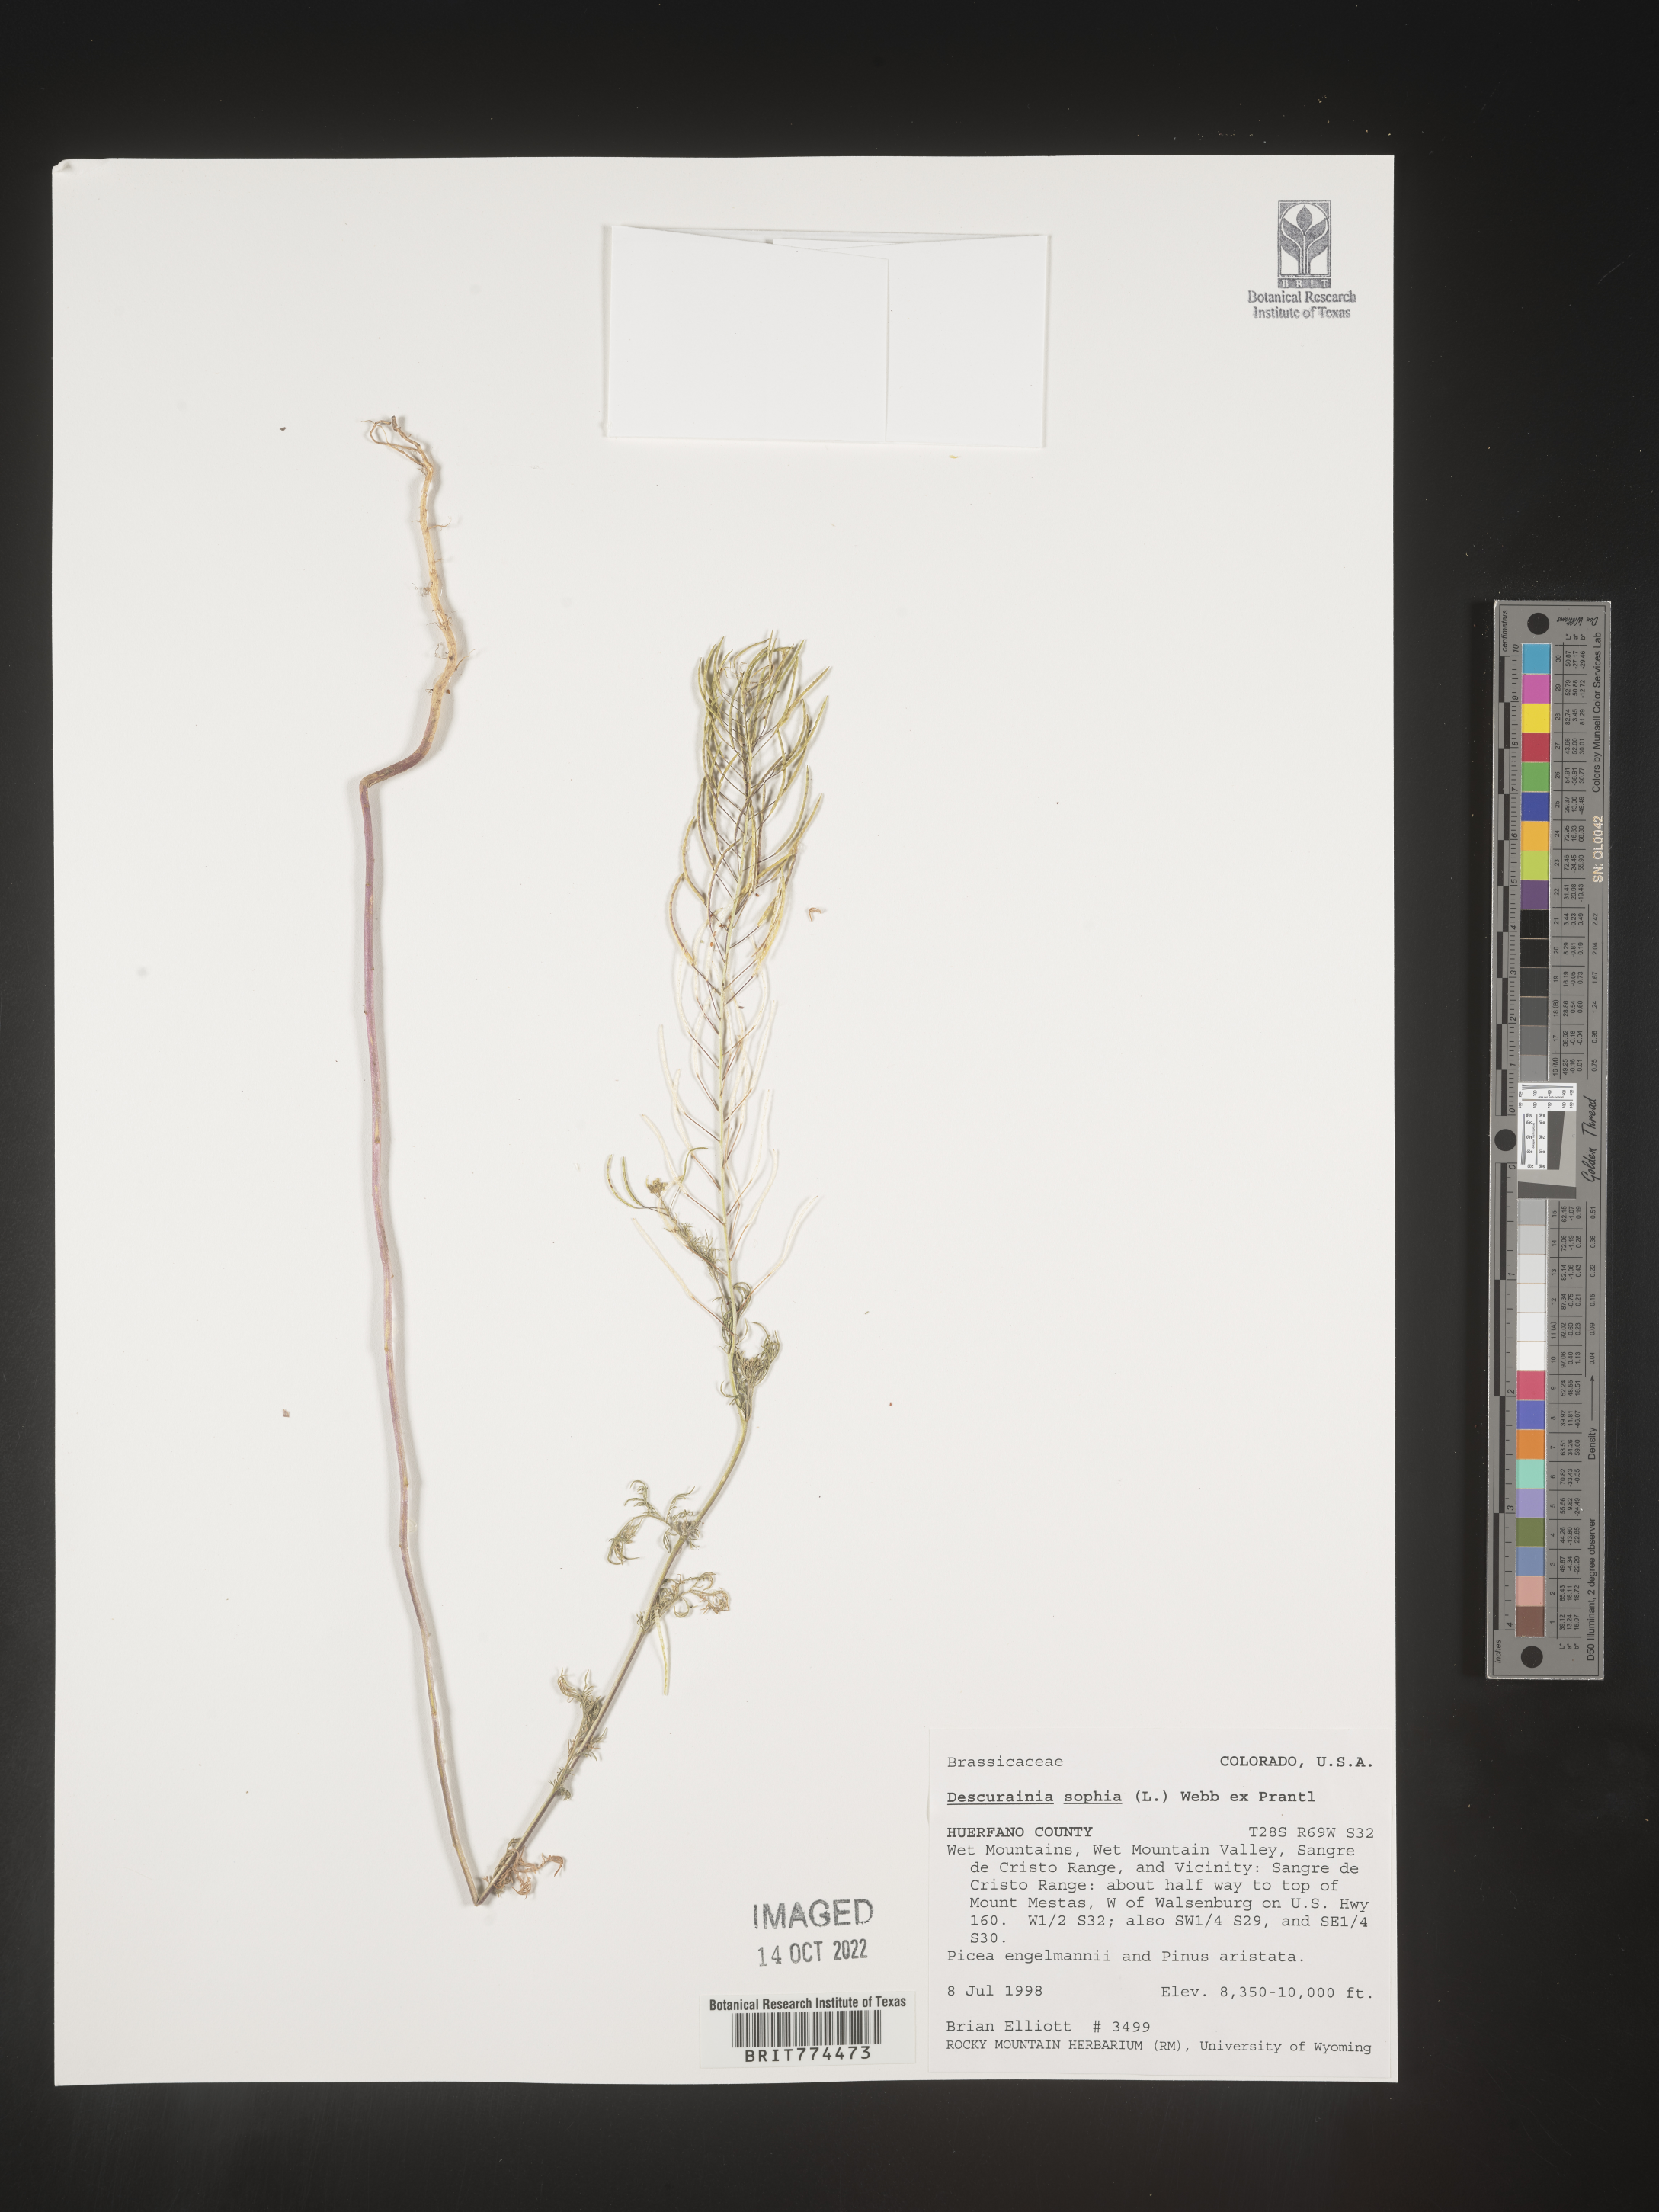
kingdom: Plantae
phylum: Tracheophyta
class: Magnoliopsida
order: Brassicales
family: Brassicaceae
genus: Descurainia
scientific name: Descurainia sophia
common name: Flixweed
